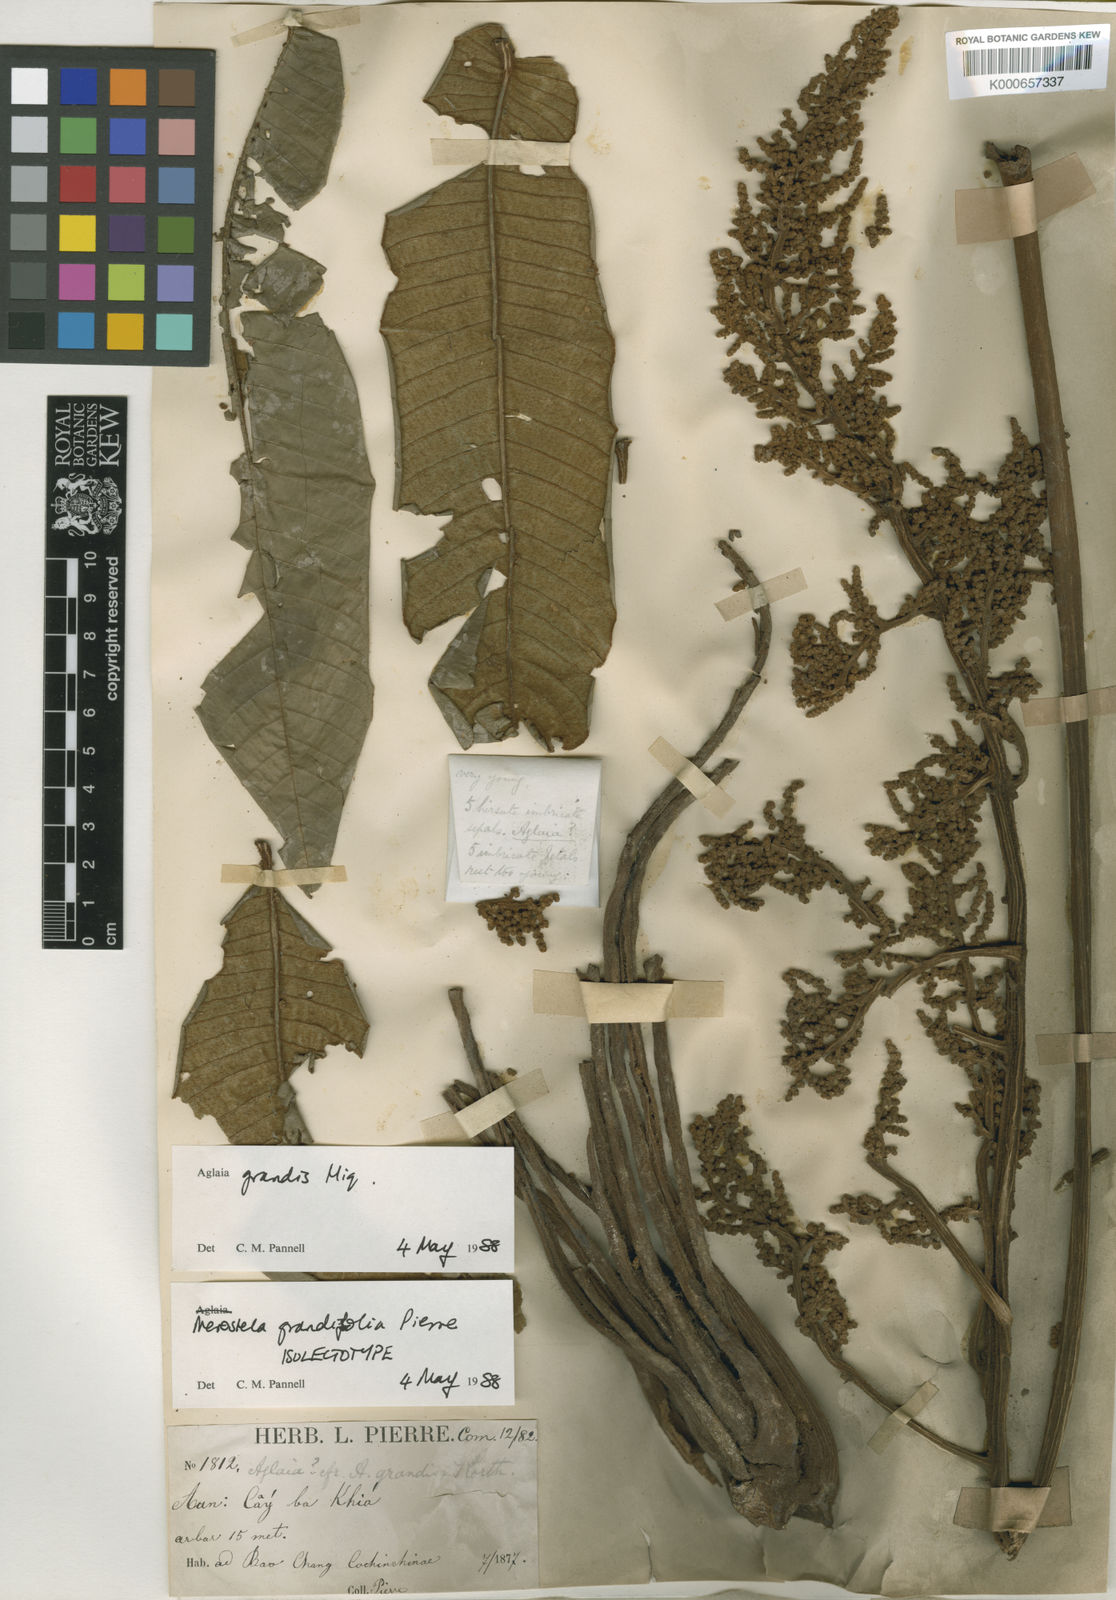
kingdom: Plantae
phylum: Tracheophyta
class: Magnoliopsida
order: Sapindales
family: Meliaceae
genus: Aglaia
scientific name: Aglaia grandis
